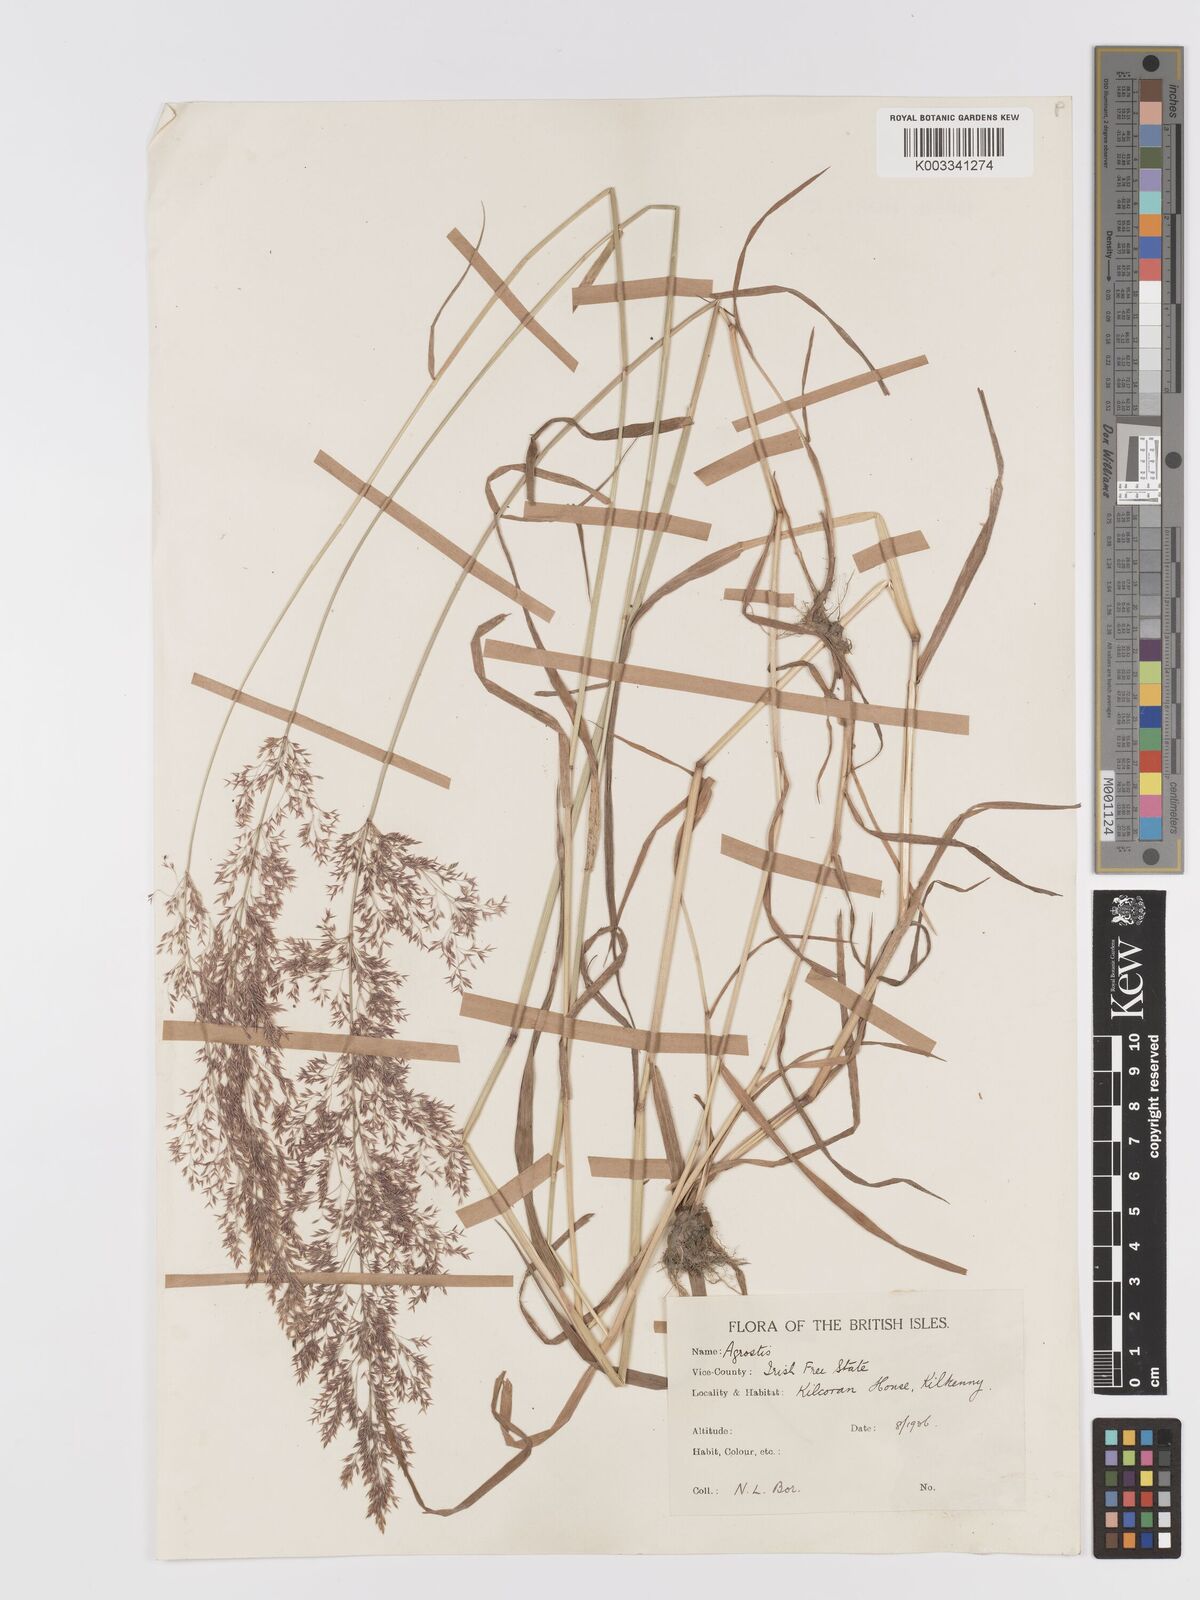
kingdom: Plantae
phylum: Tracheophyta
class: Liliopsida
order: Poales
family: Poaceae
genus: Agrostis
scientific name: Agrostis gigantea
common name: Black bent
